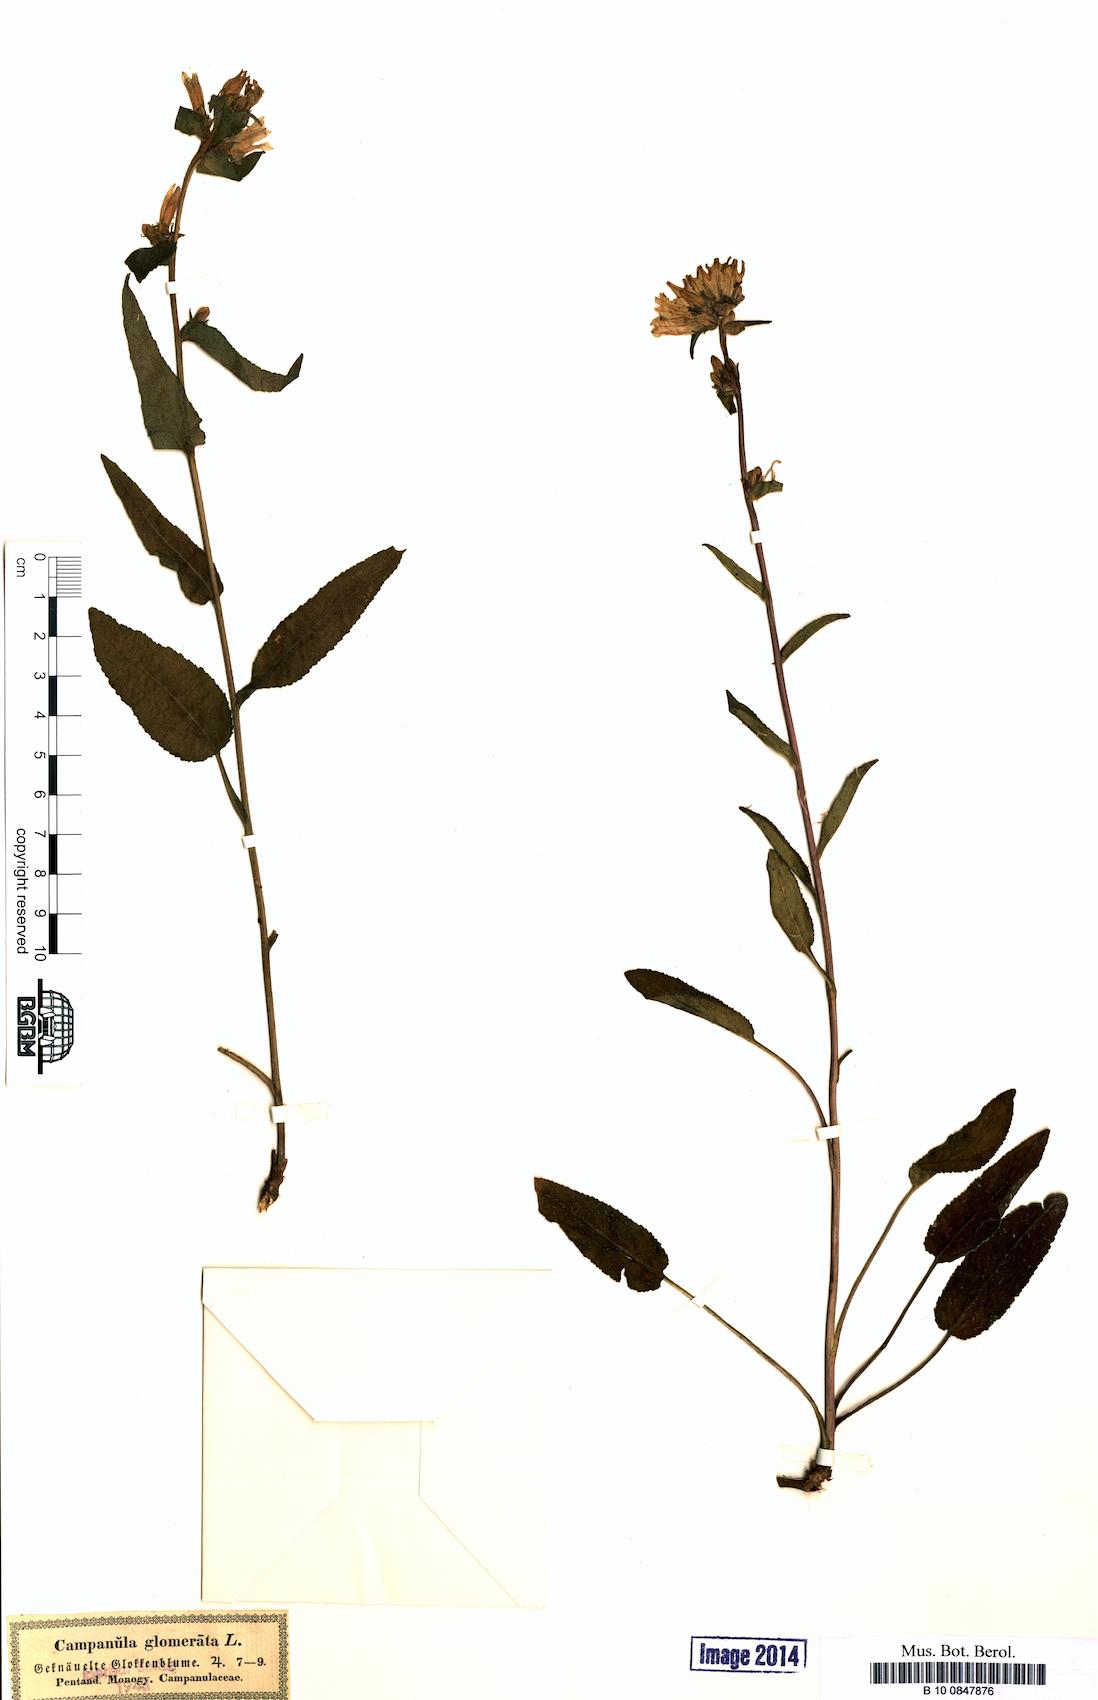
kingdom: Plantae
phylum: Tracheophyta
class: Magnoliopsida
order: Asterales
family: Campanulaceae
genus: Campanula
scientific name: Campanula glomerata
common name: Clustered bellflower
